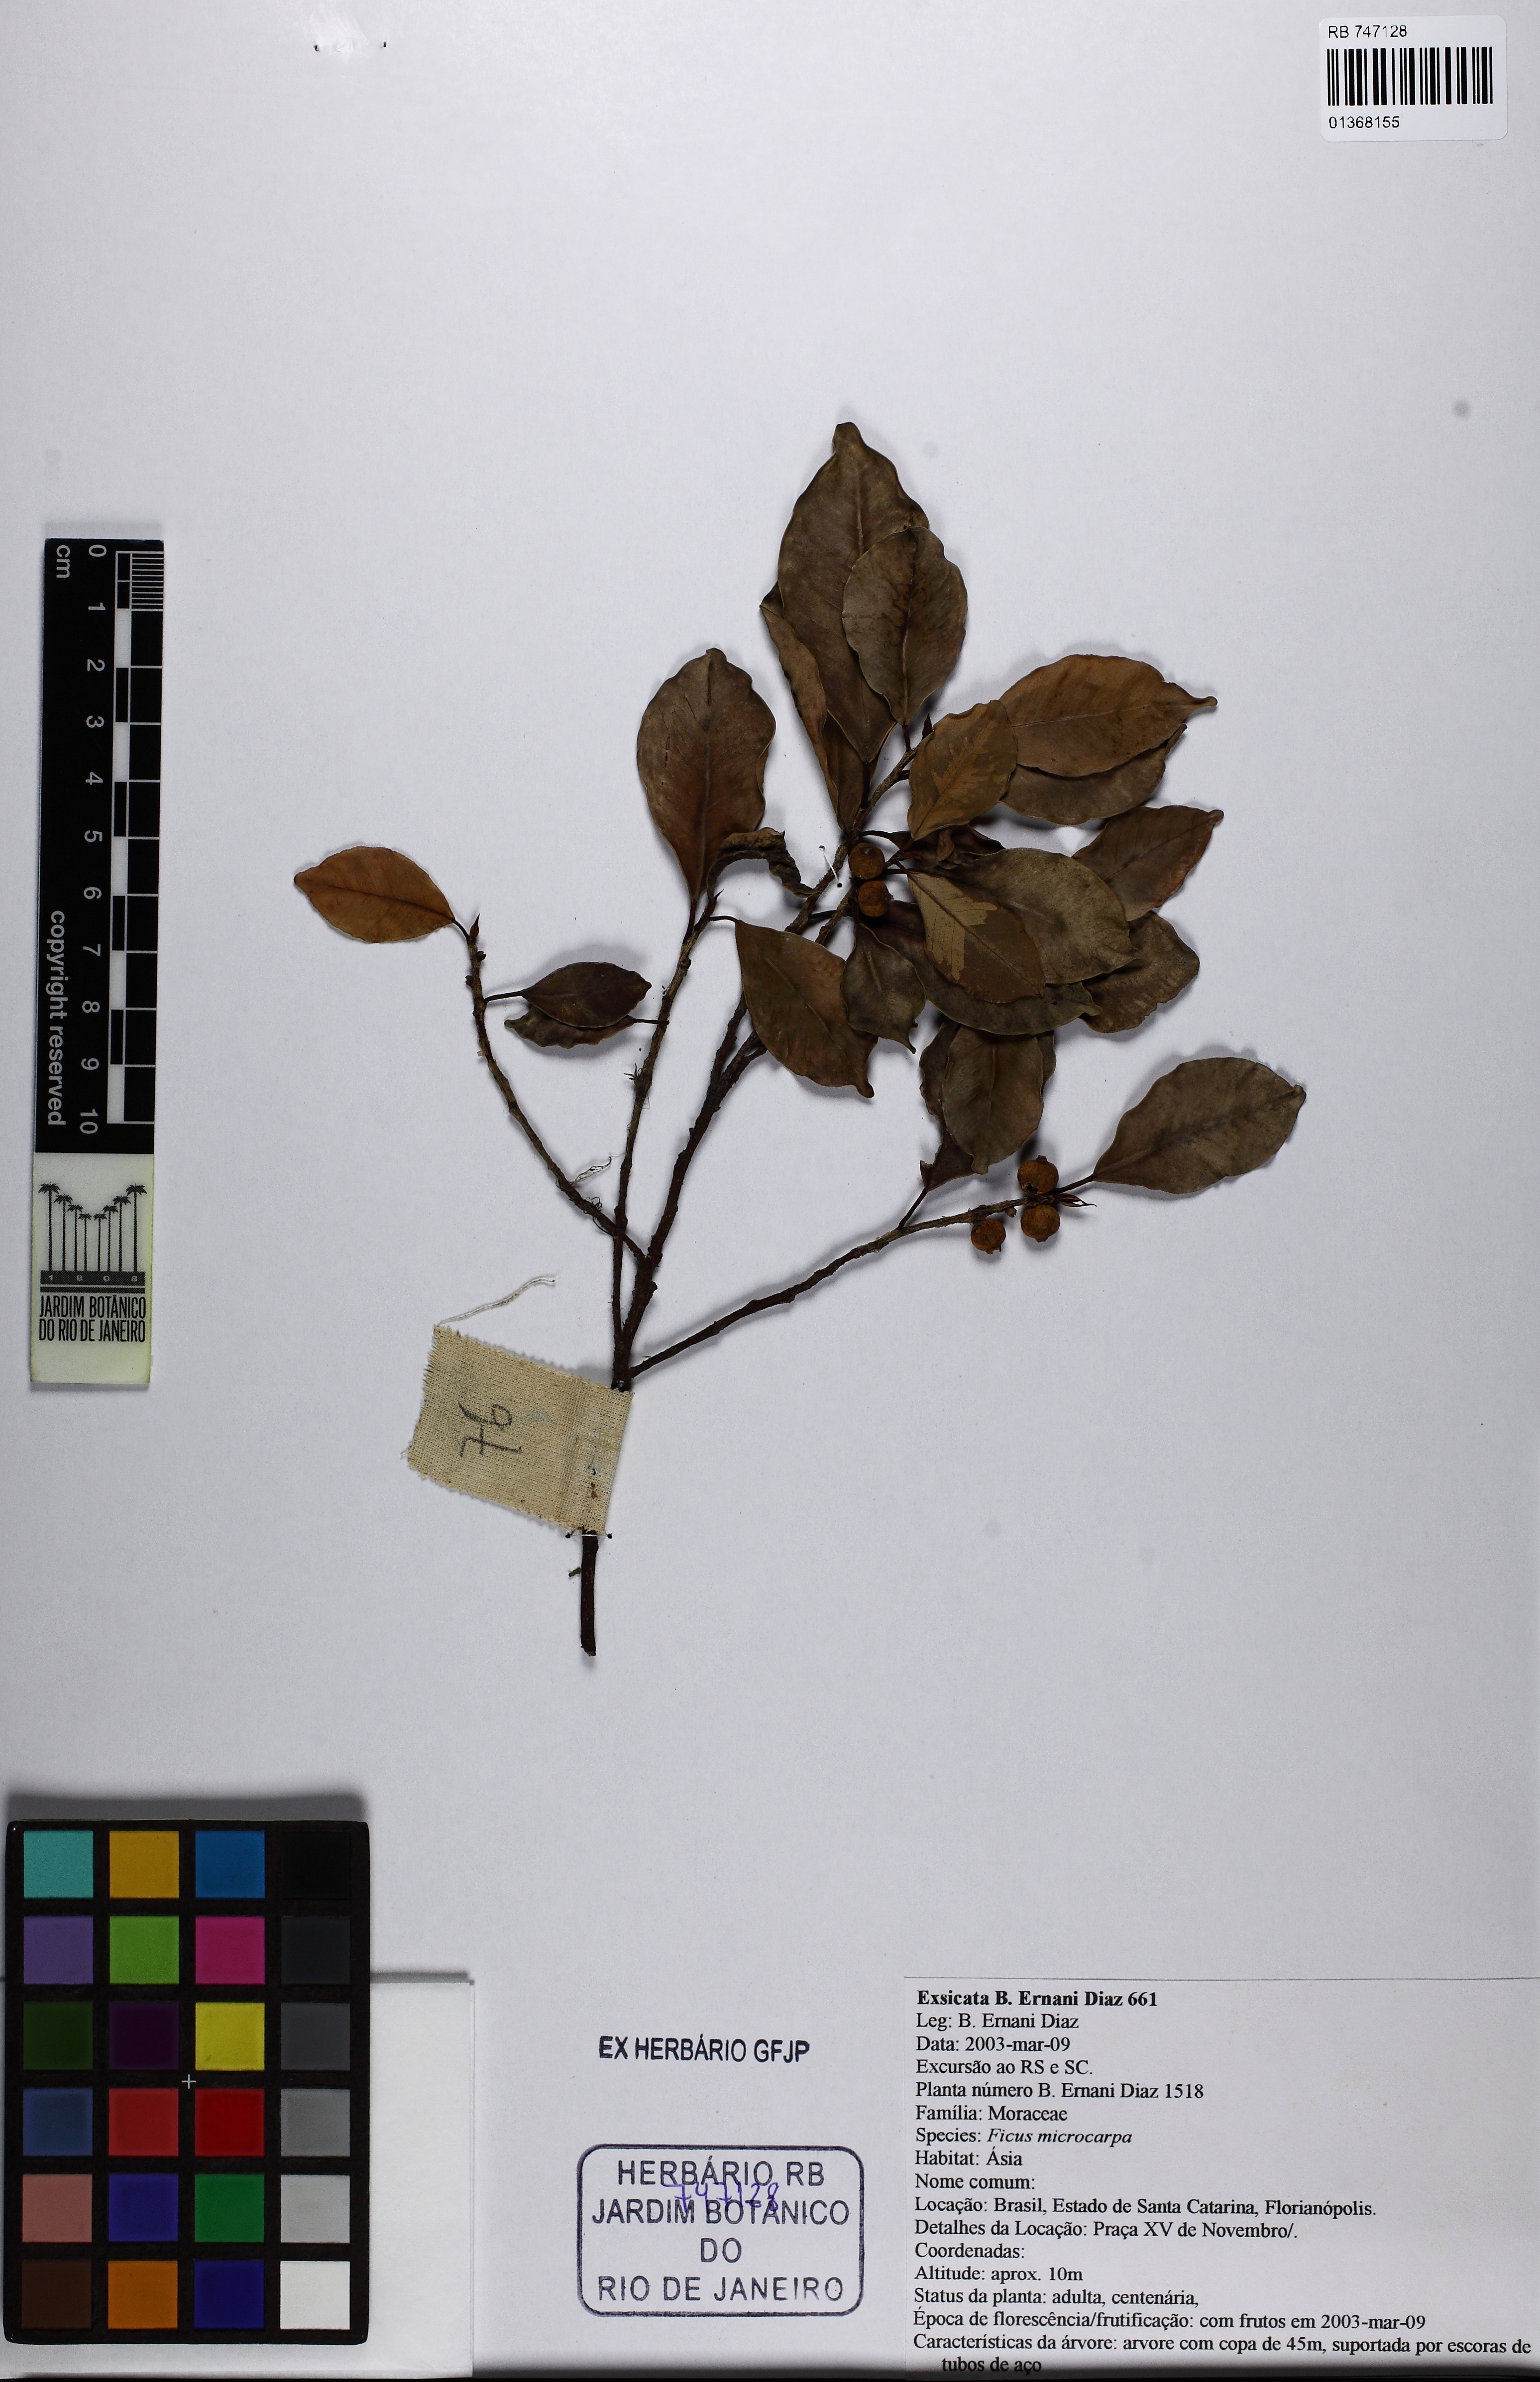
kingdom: Plantae
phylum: Tracheophyta
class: Magnoliopsida
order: Rosales
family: Moraceae
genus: Ficus
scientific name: Ficus microcarpa
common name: Chinese banyan
